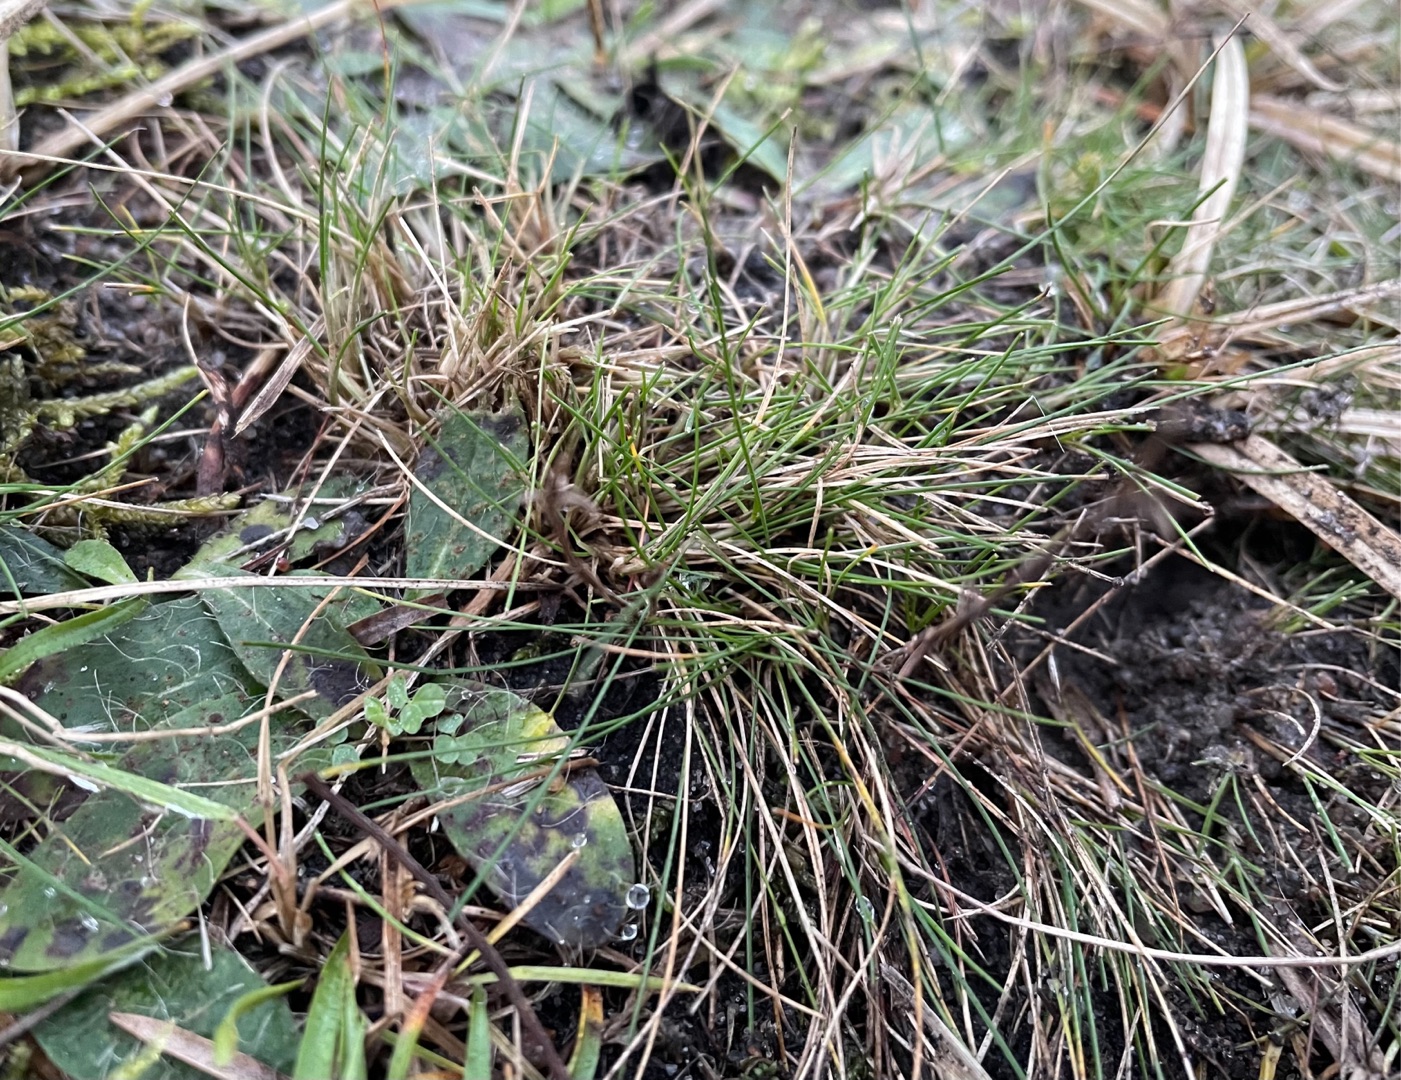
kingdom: Plantae
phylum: Tracheophyta
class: Liliopsida
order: Poales
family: Poaceae
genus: Festuca
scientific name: Festuca ovina
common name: Fåre-svingel
